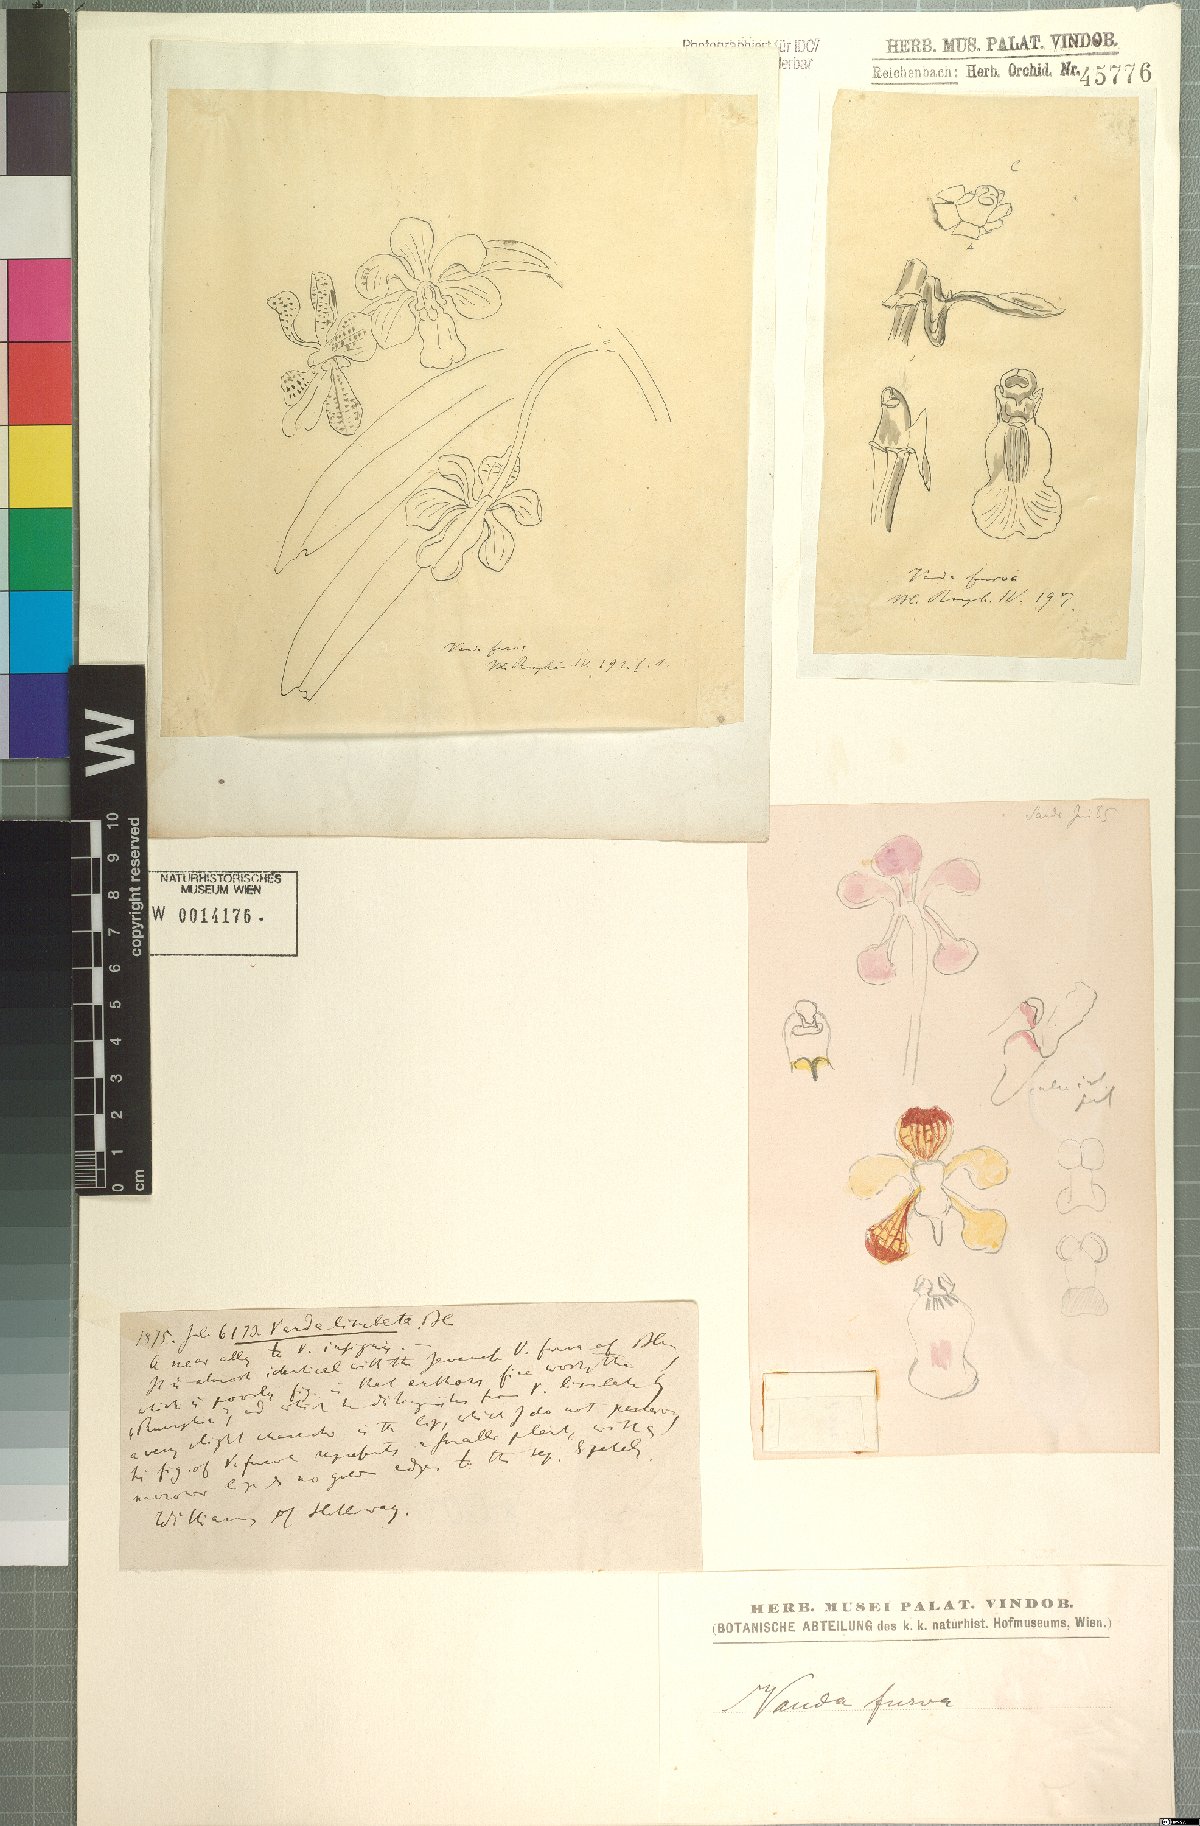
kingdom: Plantae
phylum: Tracheophyta
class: Liliopsida
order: Asparagales
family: Orchidaceae
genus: Vanda
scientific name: Vanda furva
